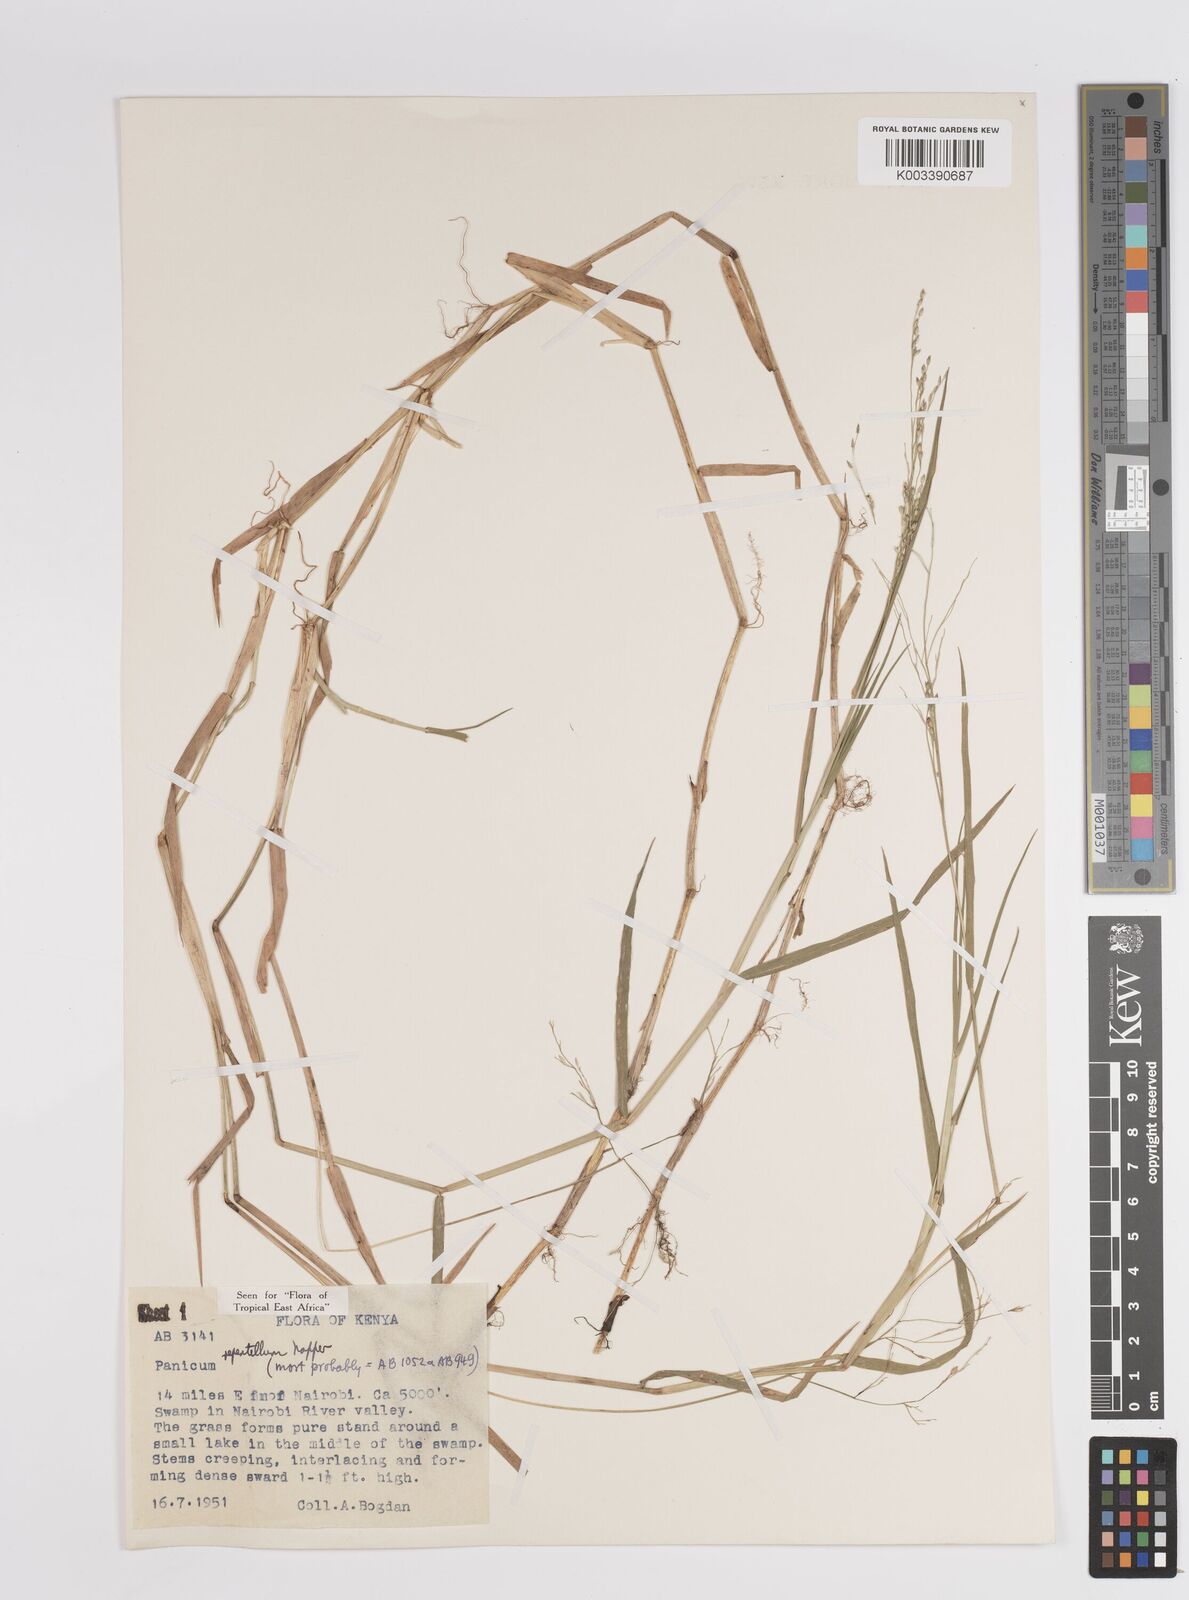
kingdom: Plantae
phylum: Tracheophyta
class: Liliopsida
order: Poales
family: Poaceae
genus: Panicum
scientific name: Panicum hygrocharis
